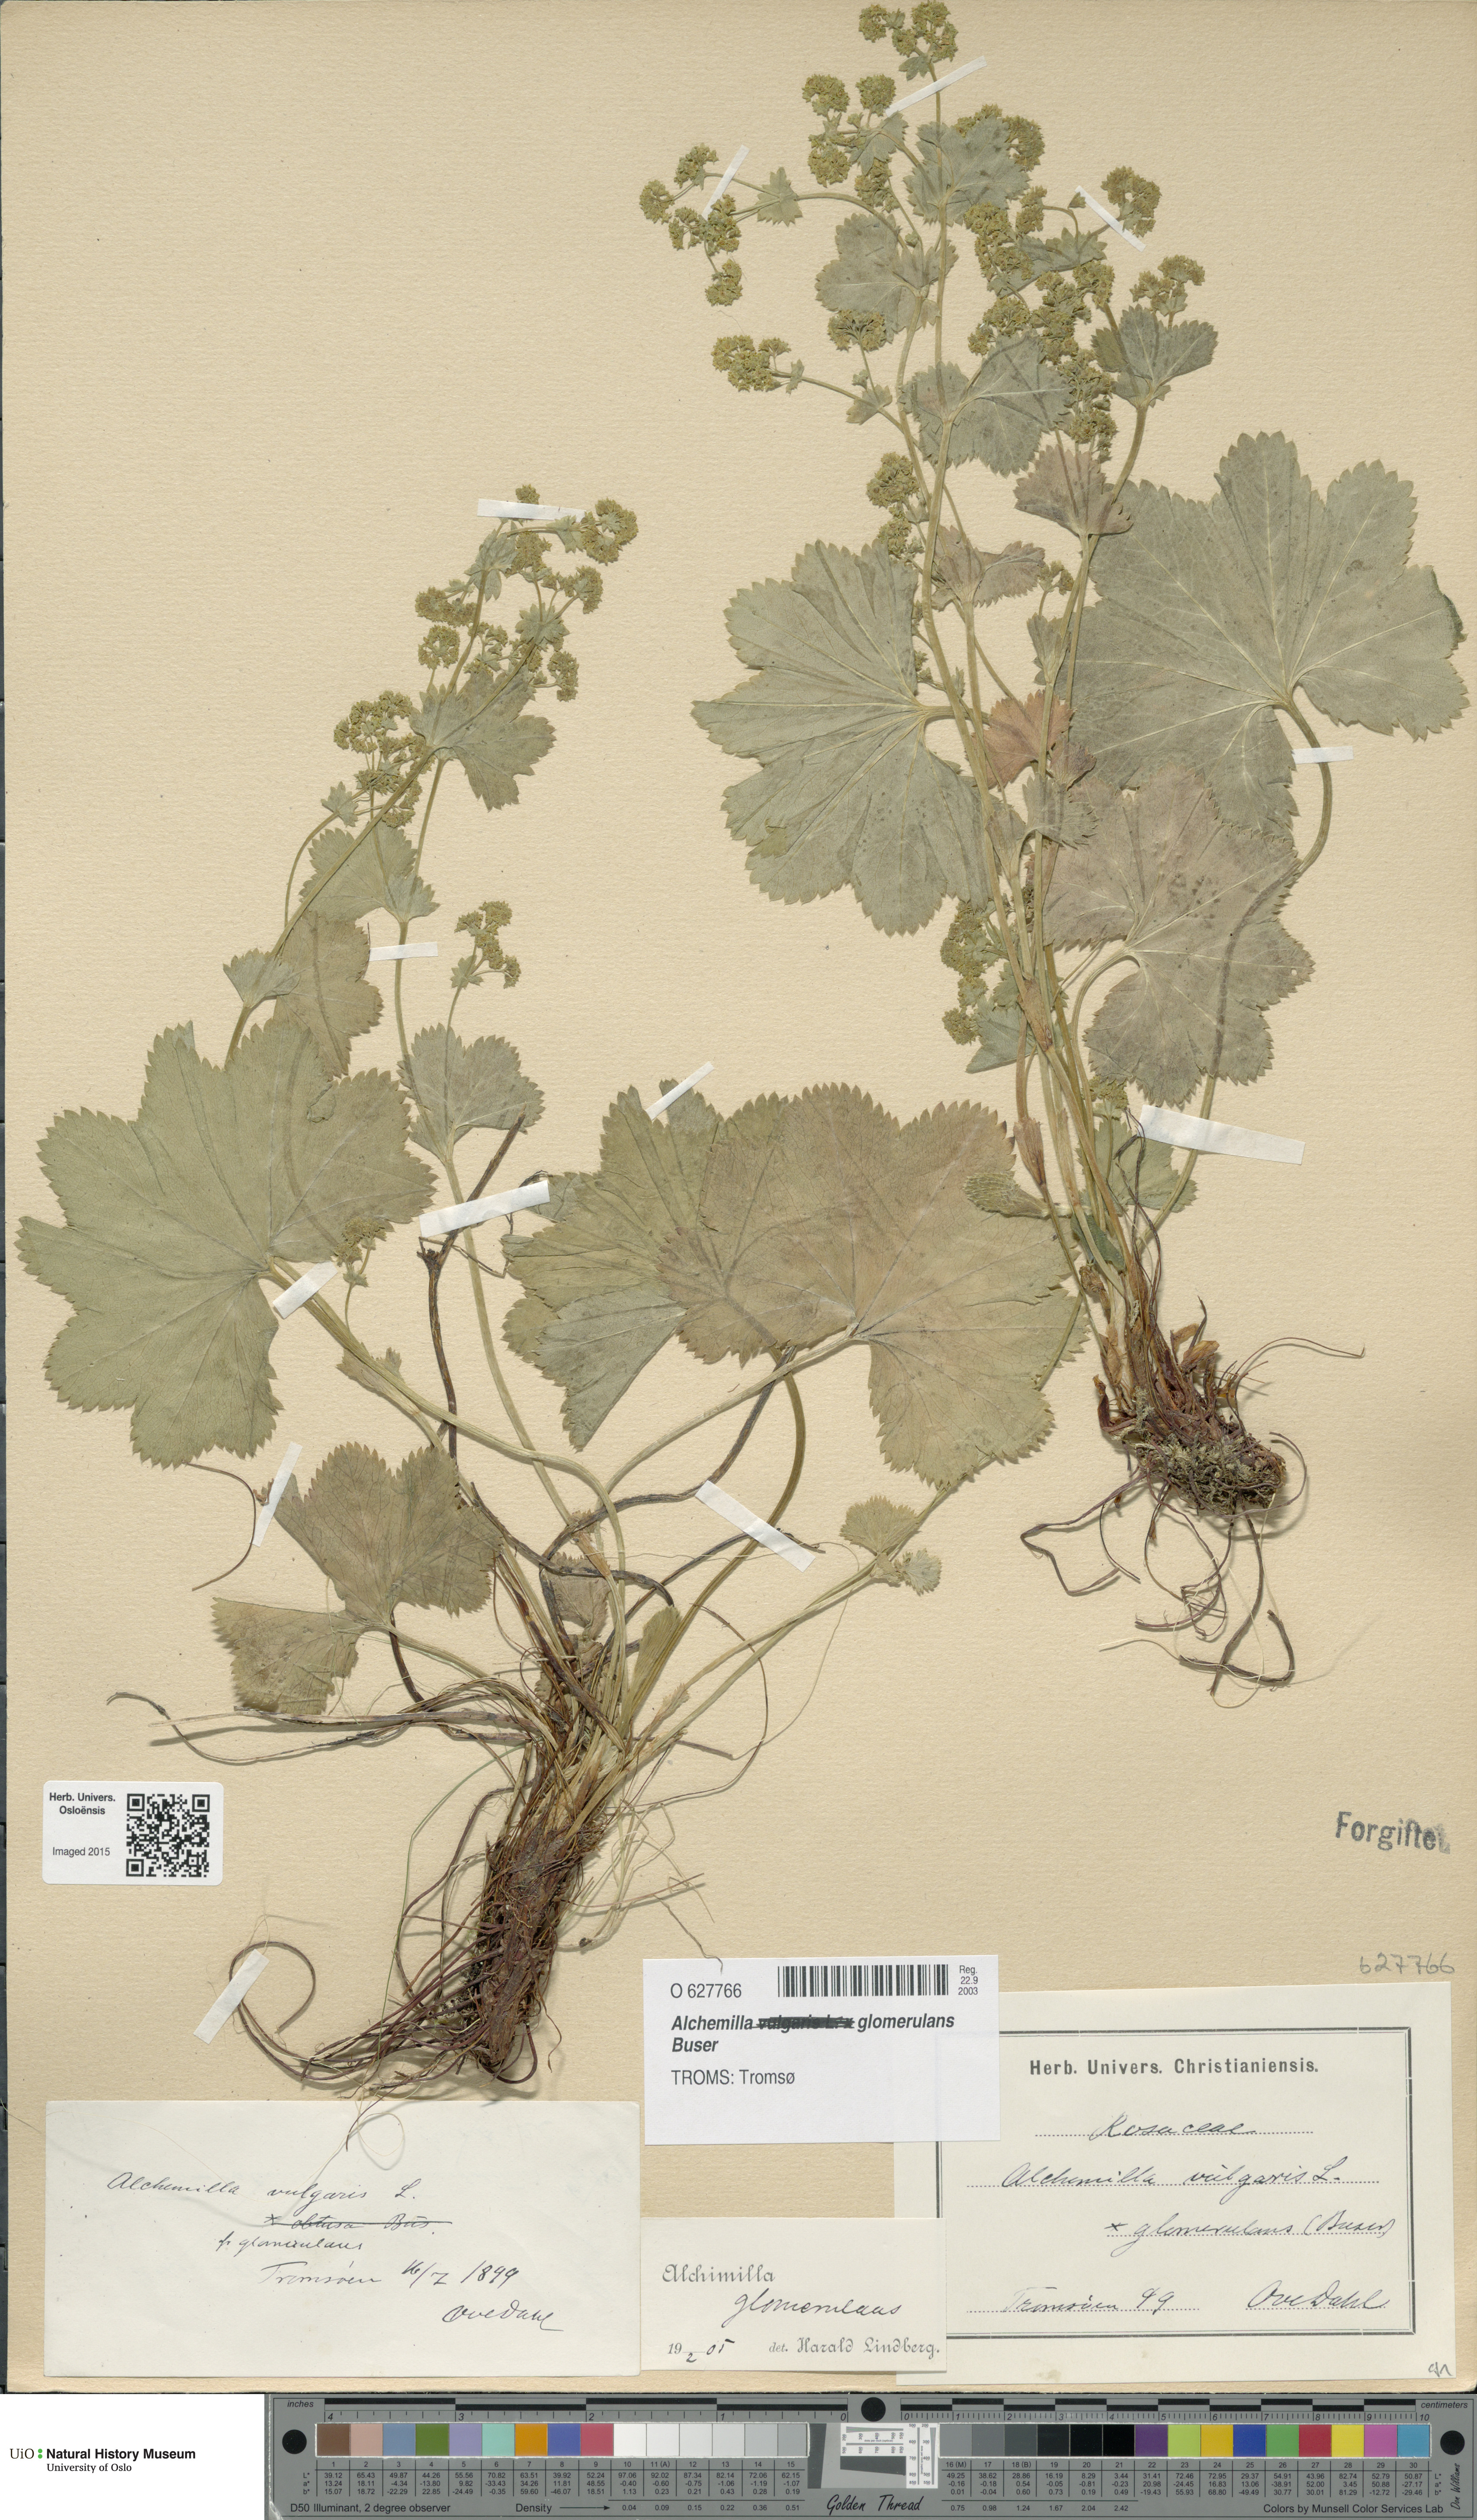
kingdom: Plantae
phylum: Tracheophyta
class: Magnoliopsida
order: Rosales
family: Rosaceae
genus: Alchemilla
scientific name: Alchemilla glomerulans
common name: Clustered lady's mantle
